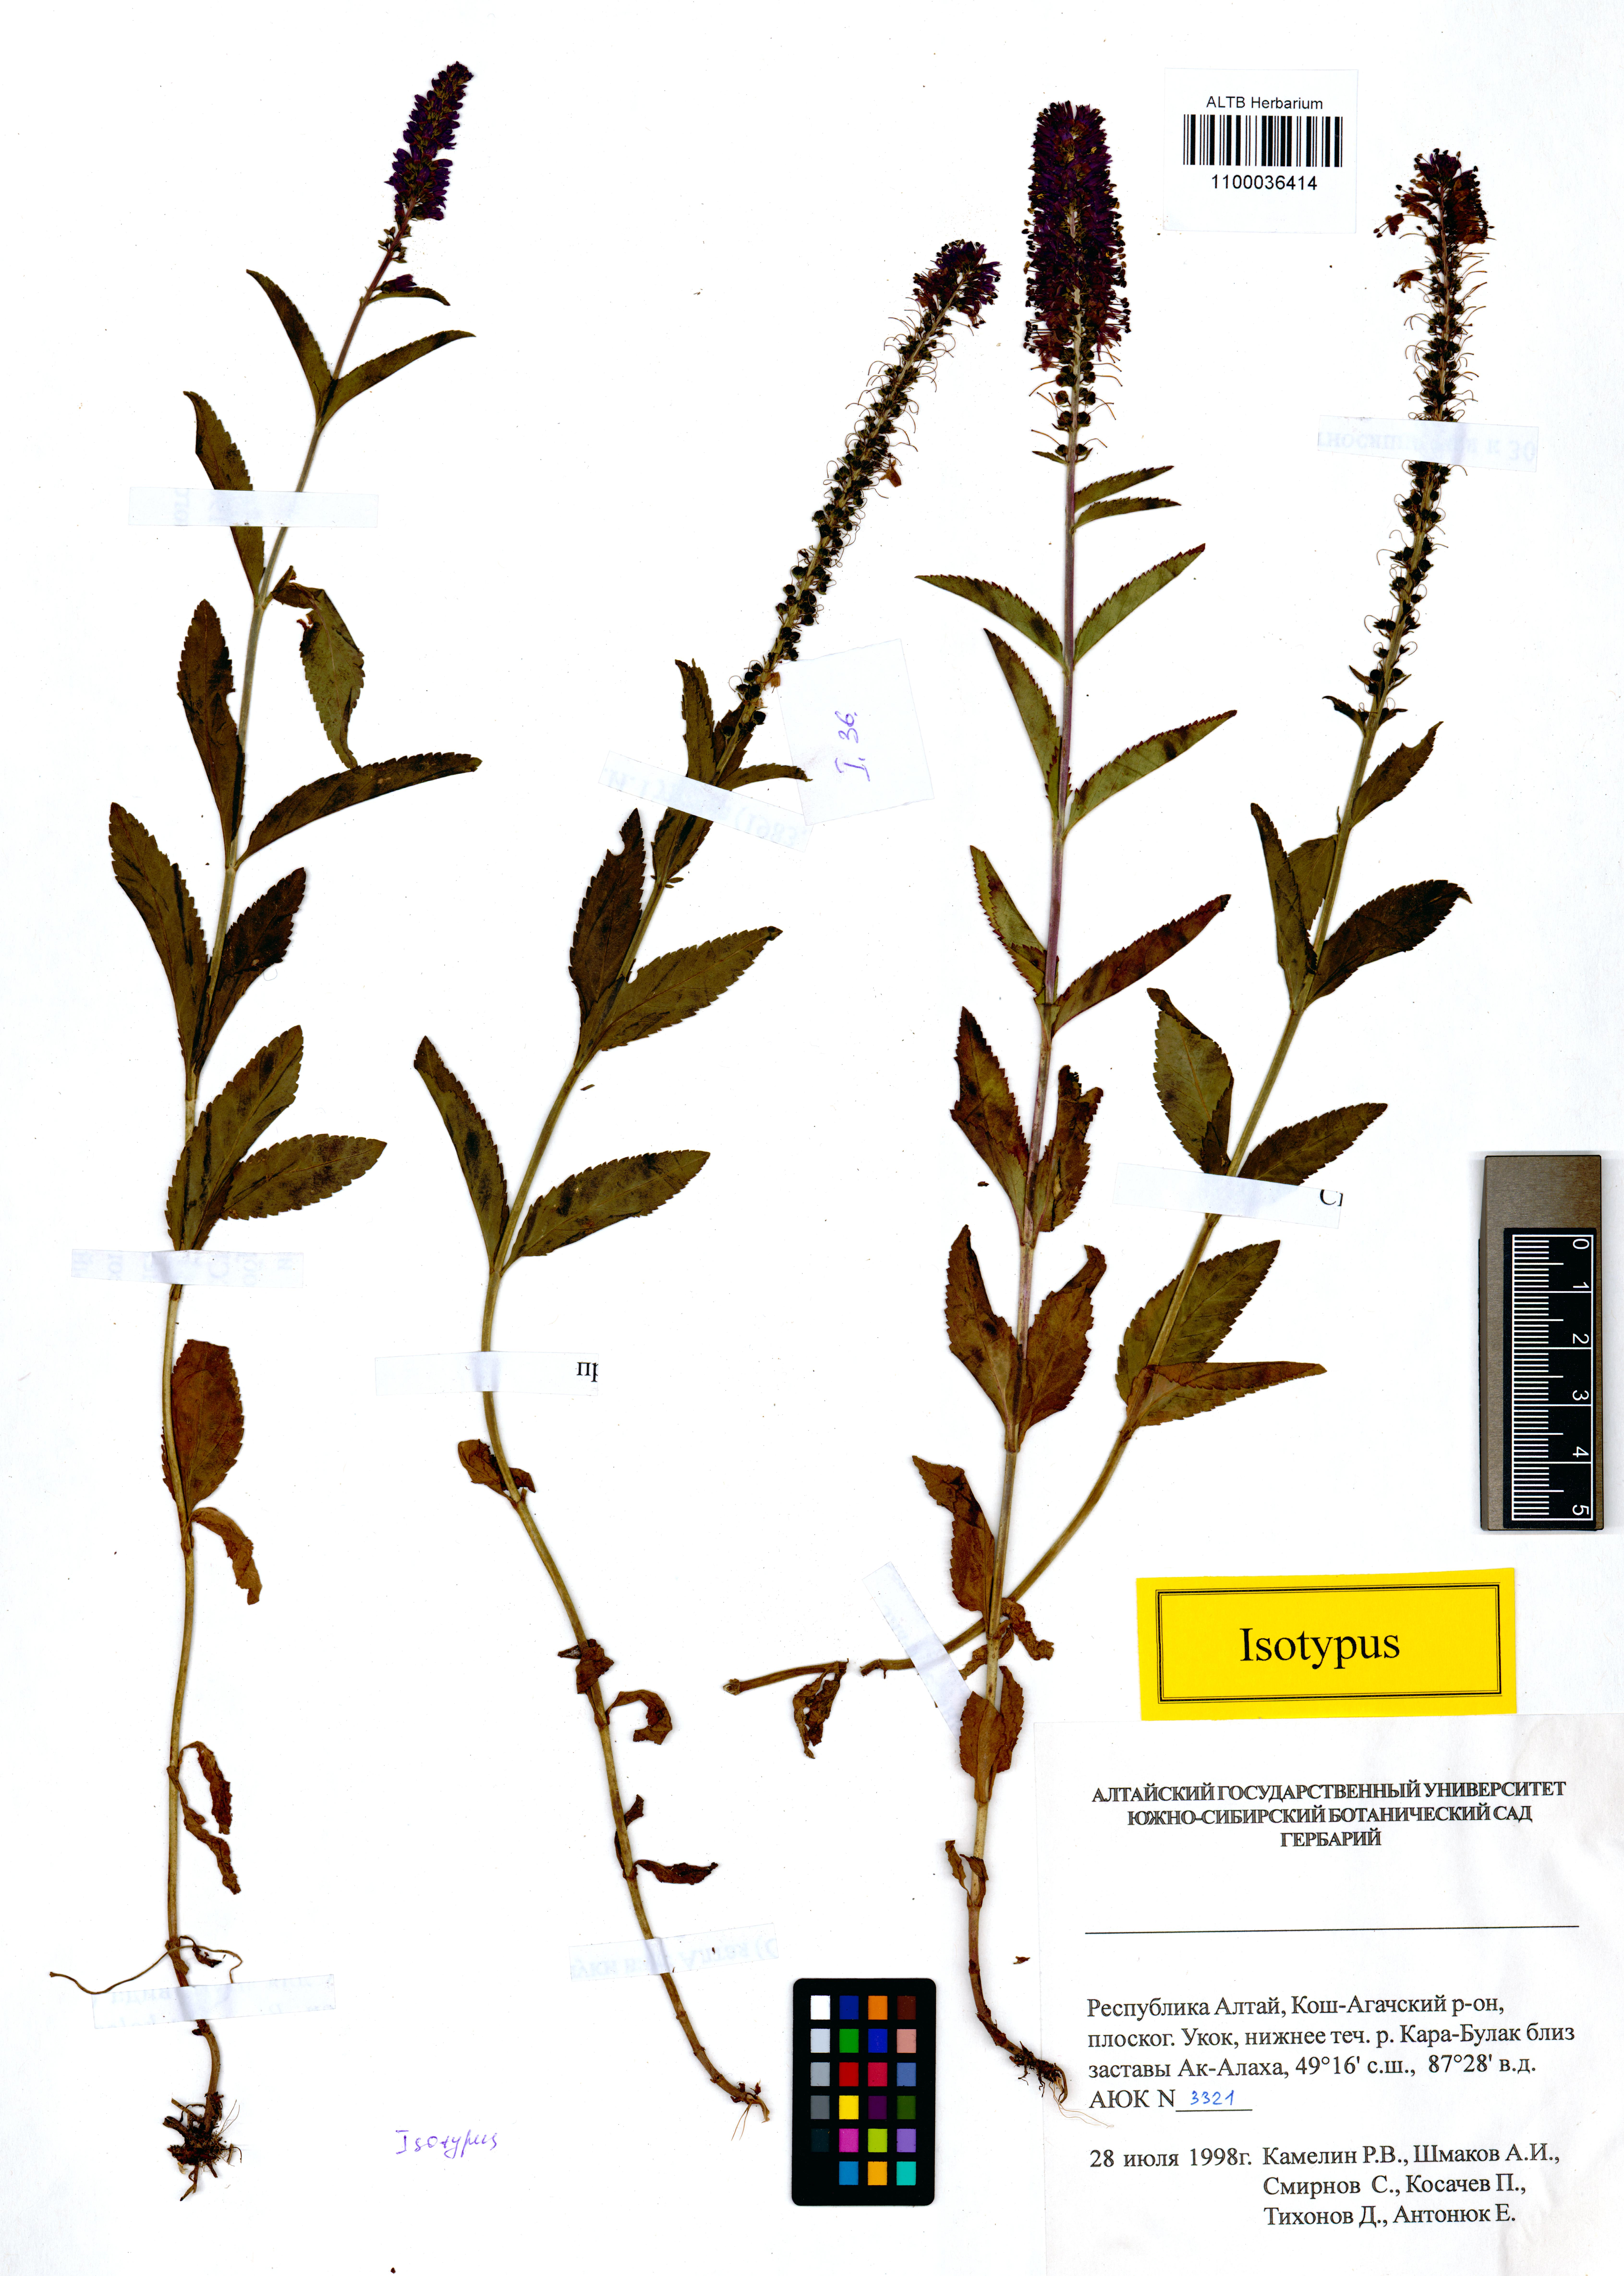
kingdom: Plantae
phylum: Tracheophyta
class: Magnoliopsida
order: Lamiales
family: Plantaginaceae
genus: Veronica
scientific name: Veronica schmakovii
